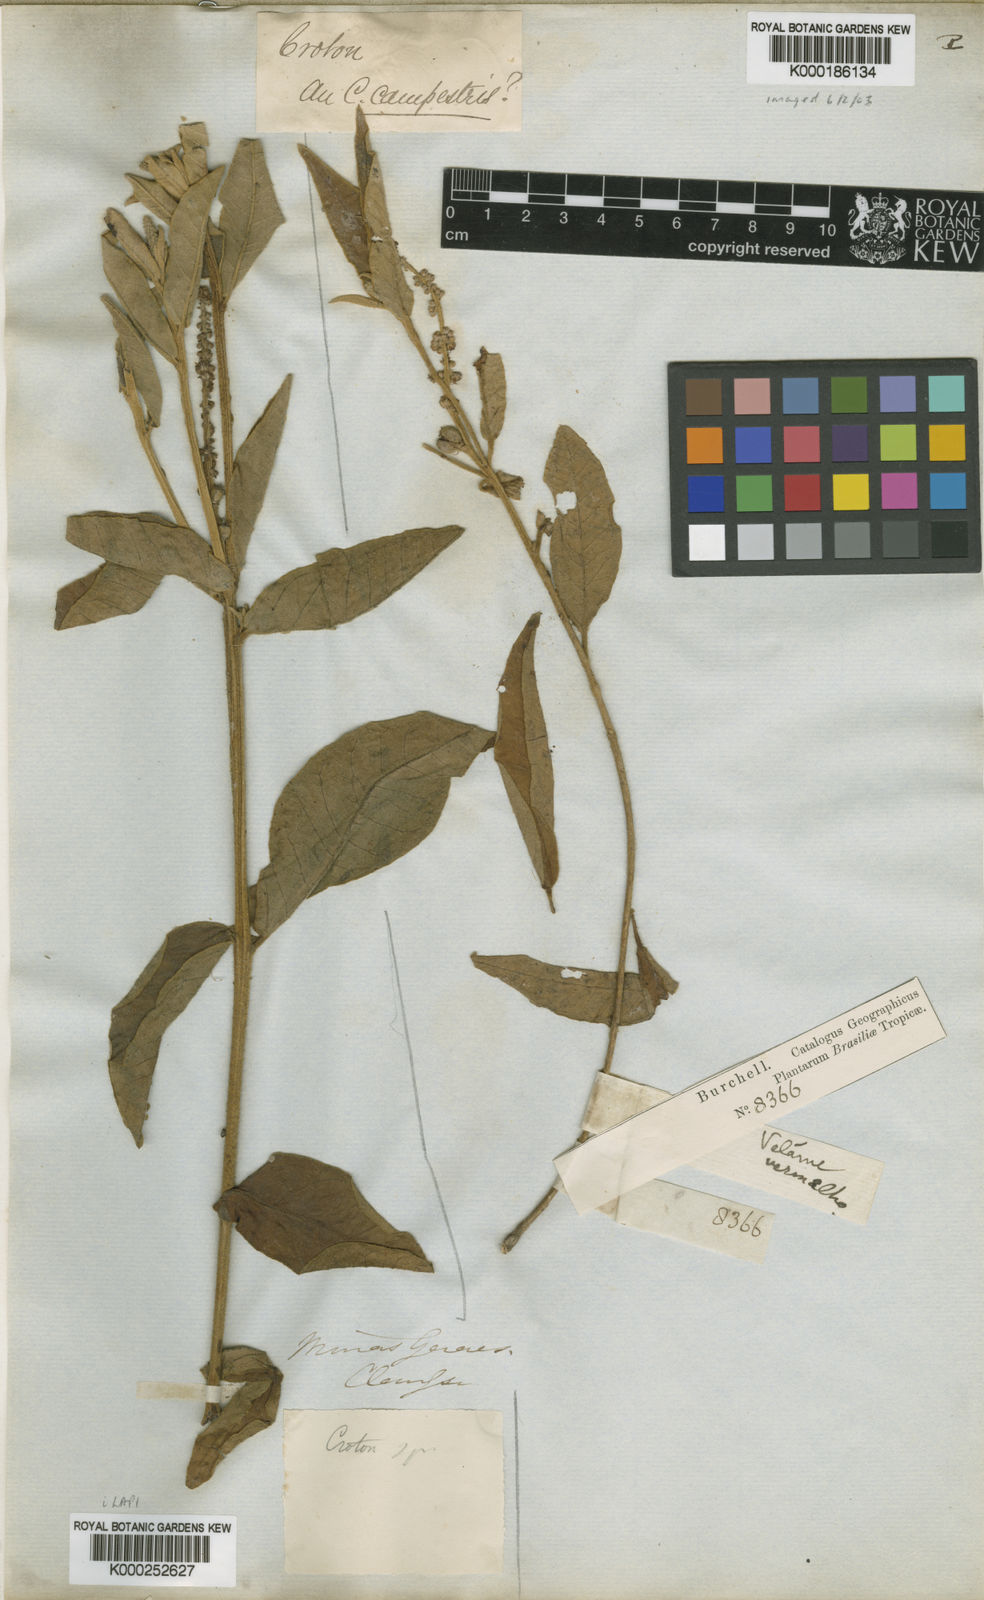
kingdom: Plantae
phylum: Tracheophyta
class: Magnoliopsida
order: Malpighiales
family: Euphorbiaceae
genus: Croton
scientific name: Croton
